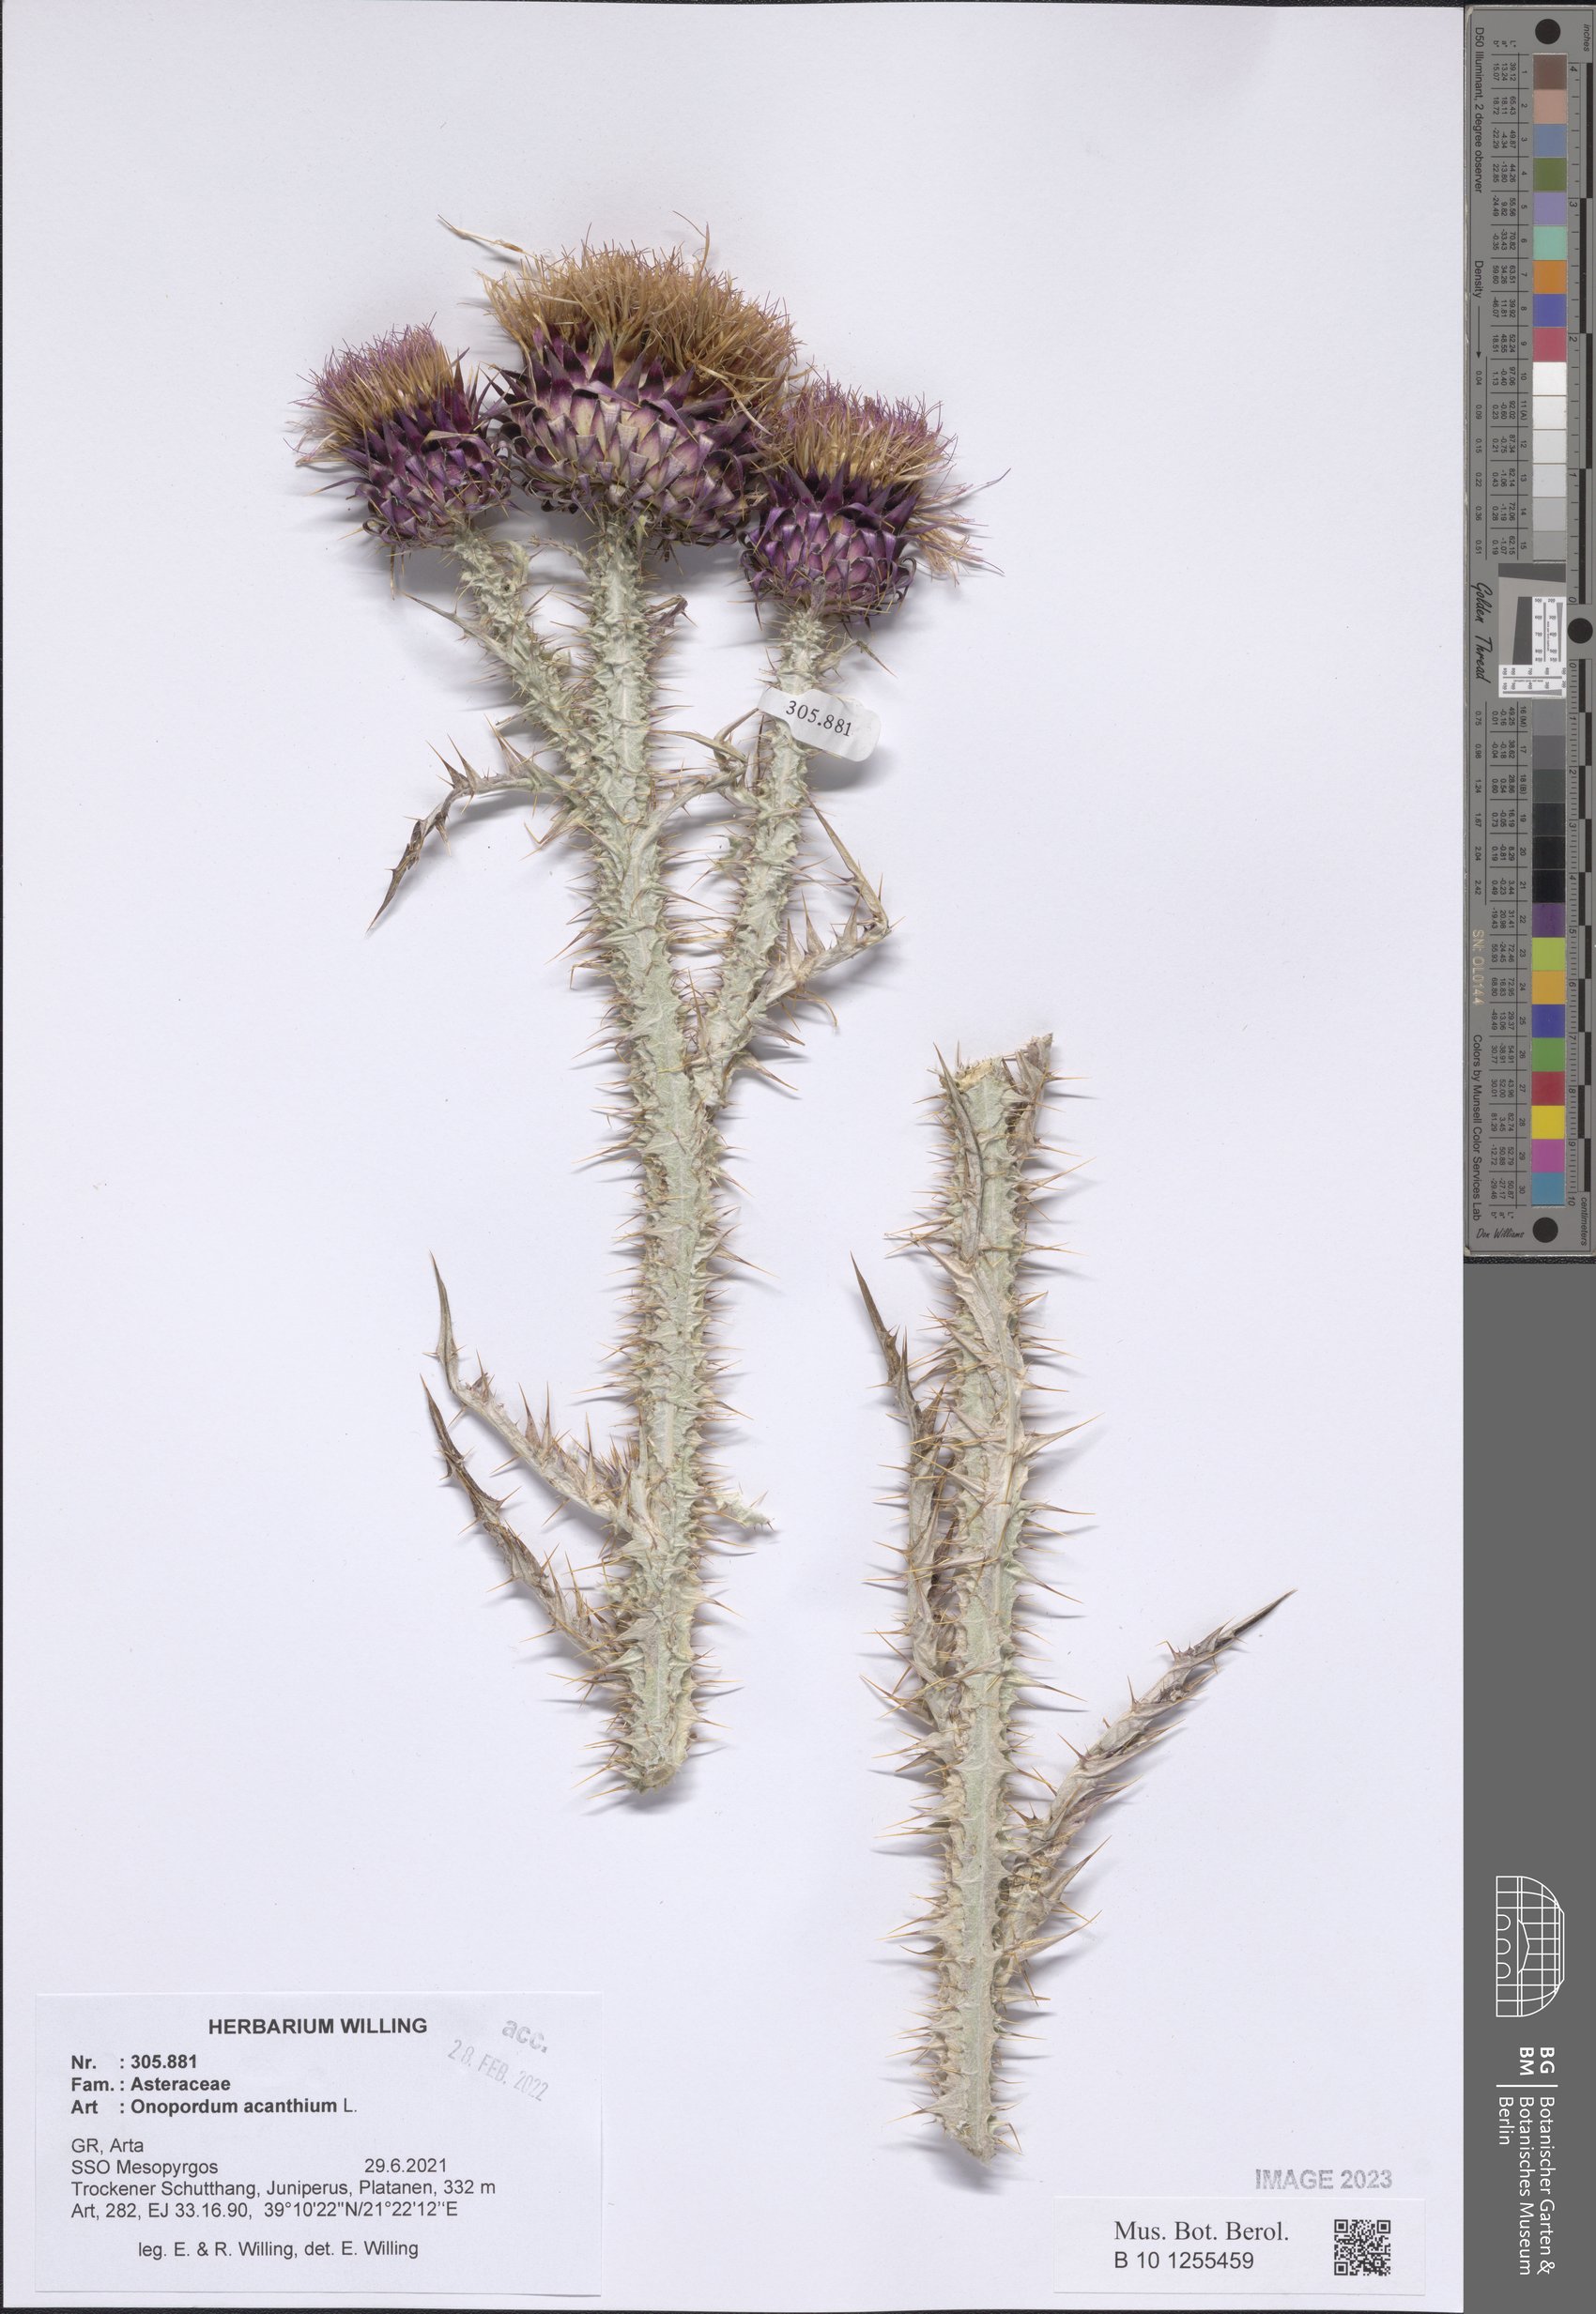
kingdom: Plantae
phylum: Tracheophyta
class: Magnoliopsida
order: Asterales
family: Asteraceae
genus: Onopordum
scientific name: Onopordum acanthium
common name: Scotch thistle
